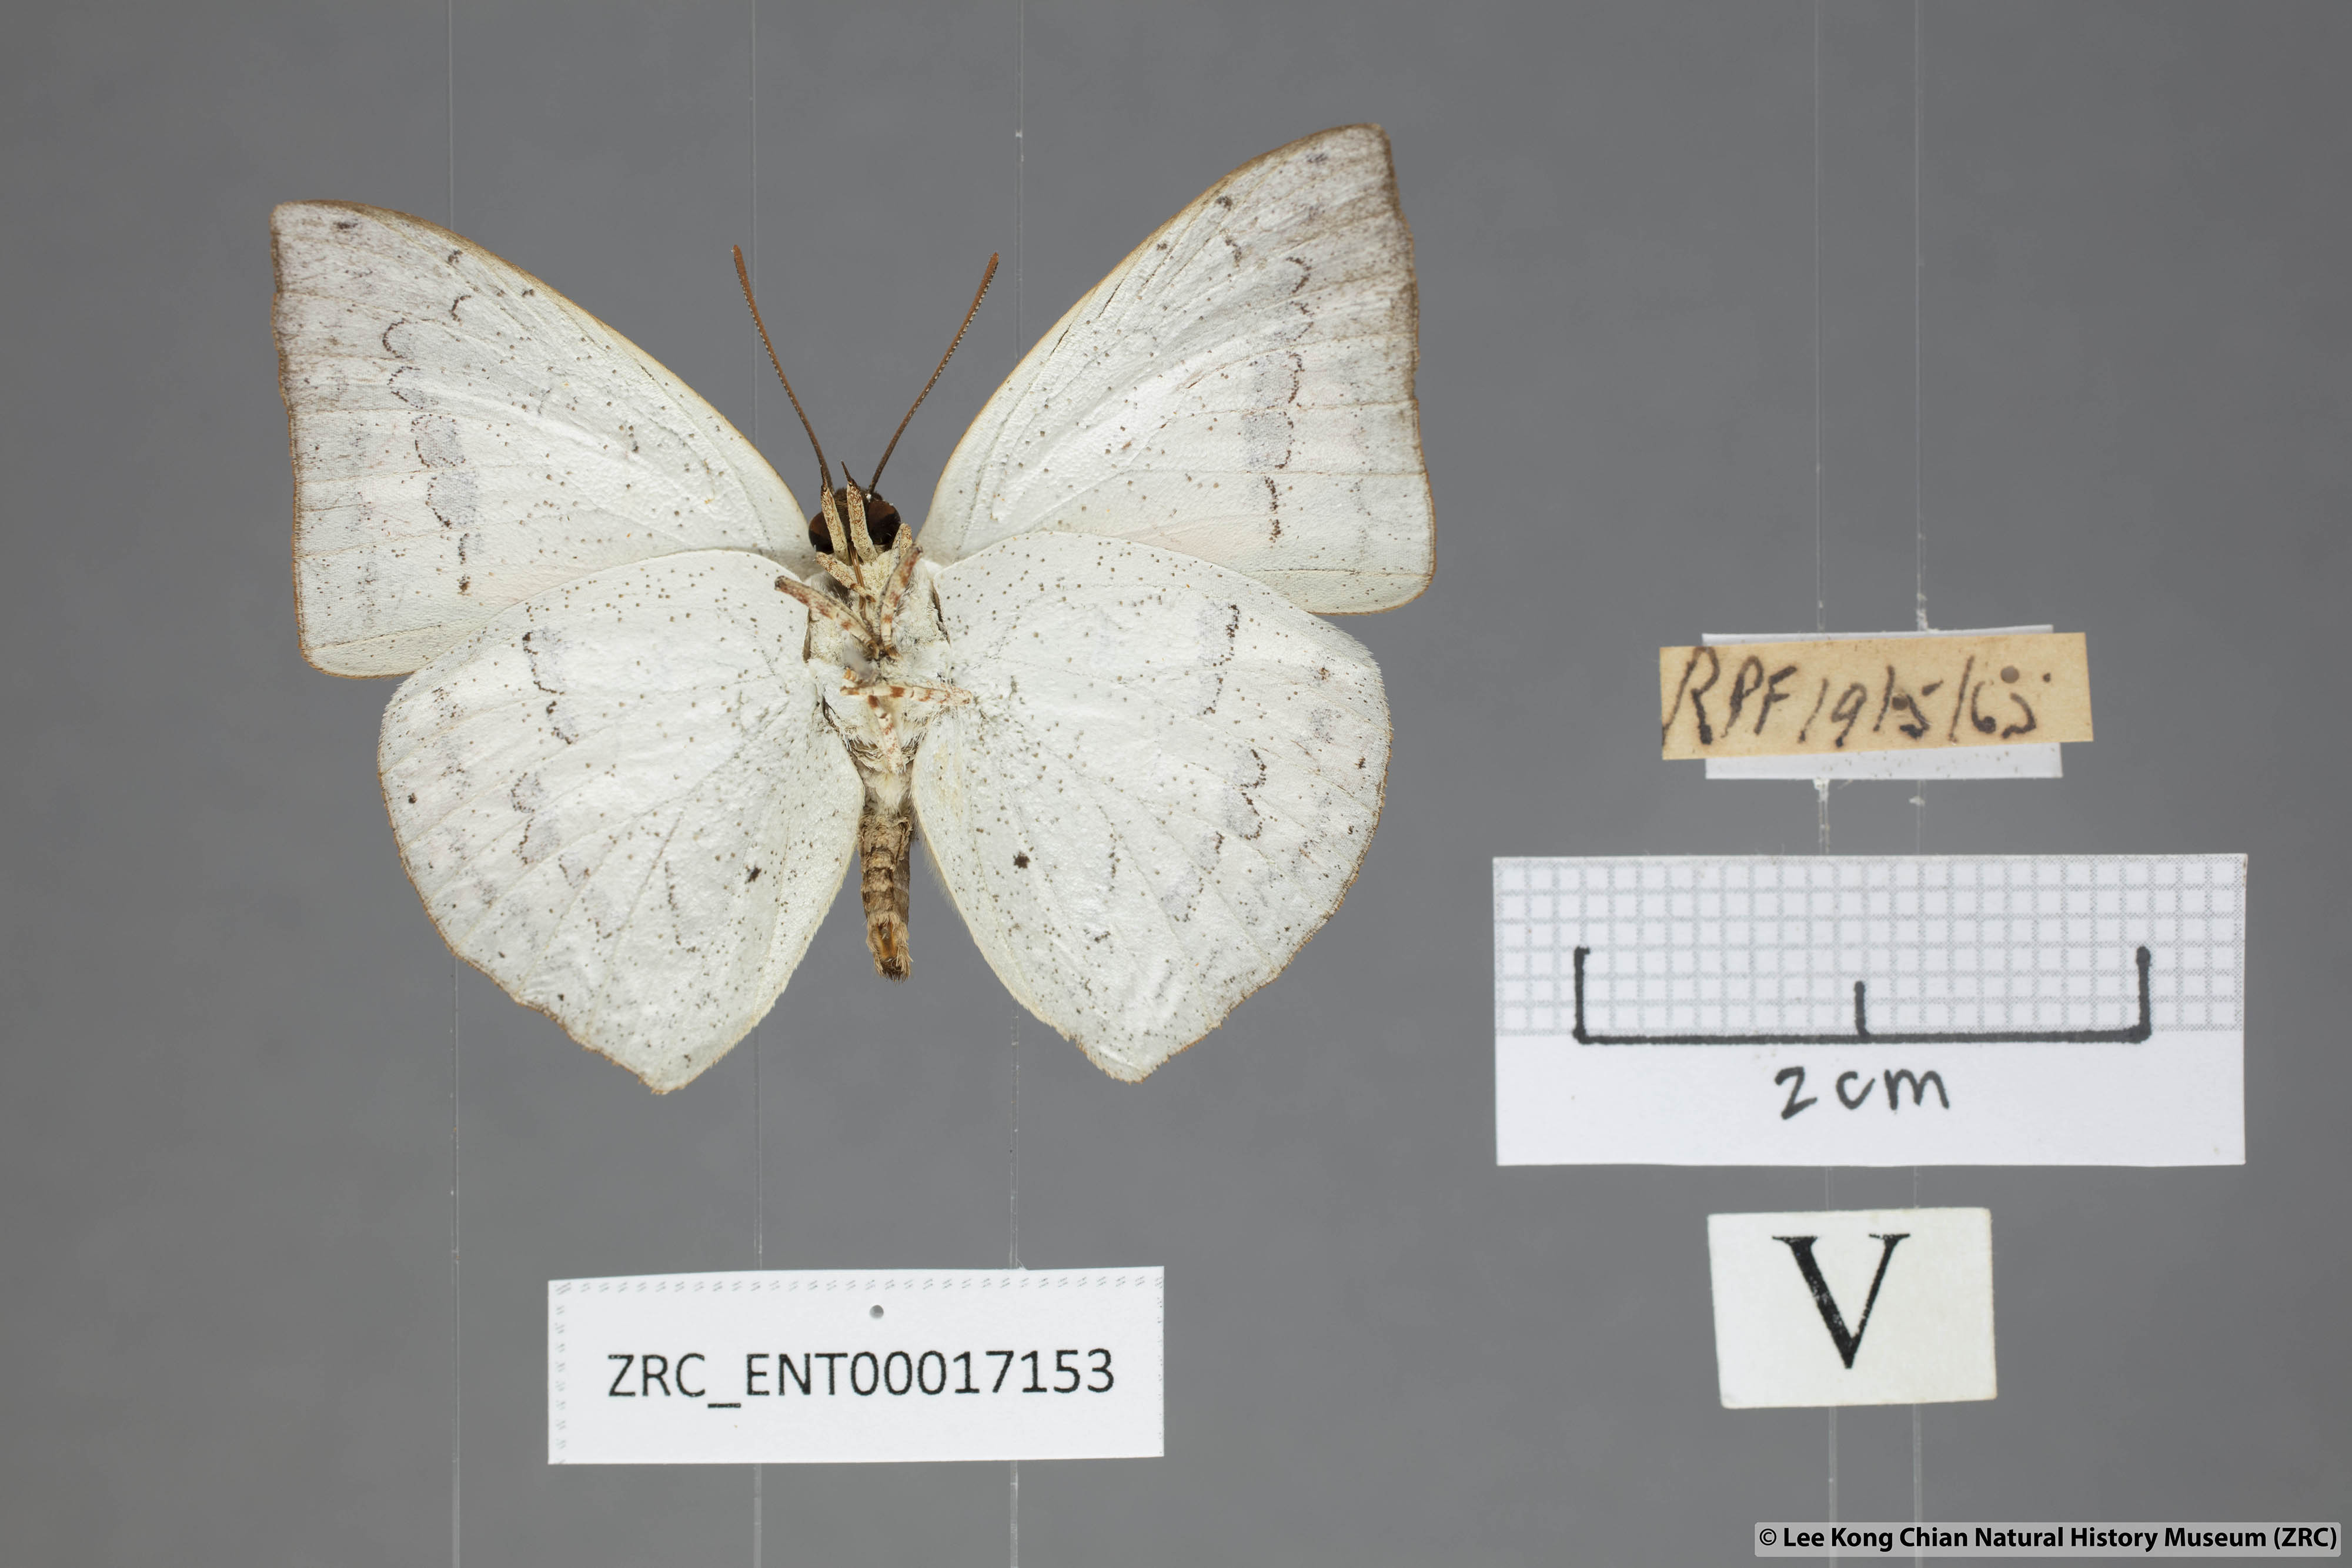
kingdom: Animalia
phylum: Arthropoda
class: Insecta
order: Lepidoptera
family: Lycaenidae
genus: Curetis
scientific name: Curetis santana
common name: Malayan sunbeam
